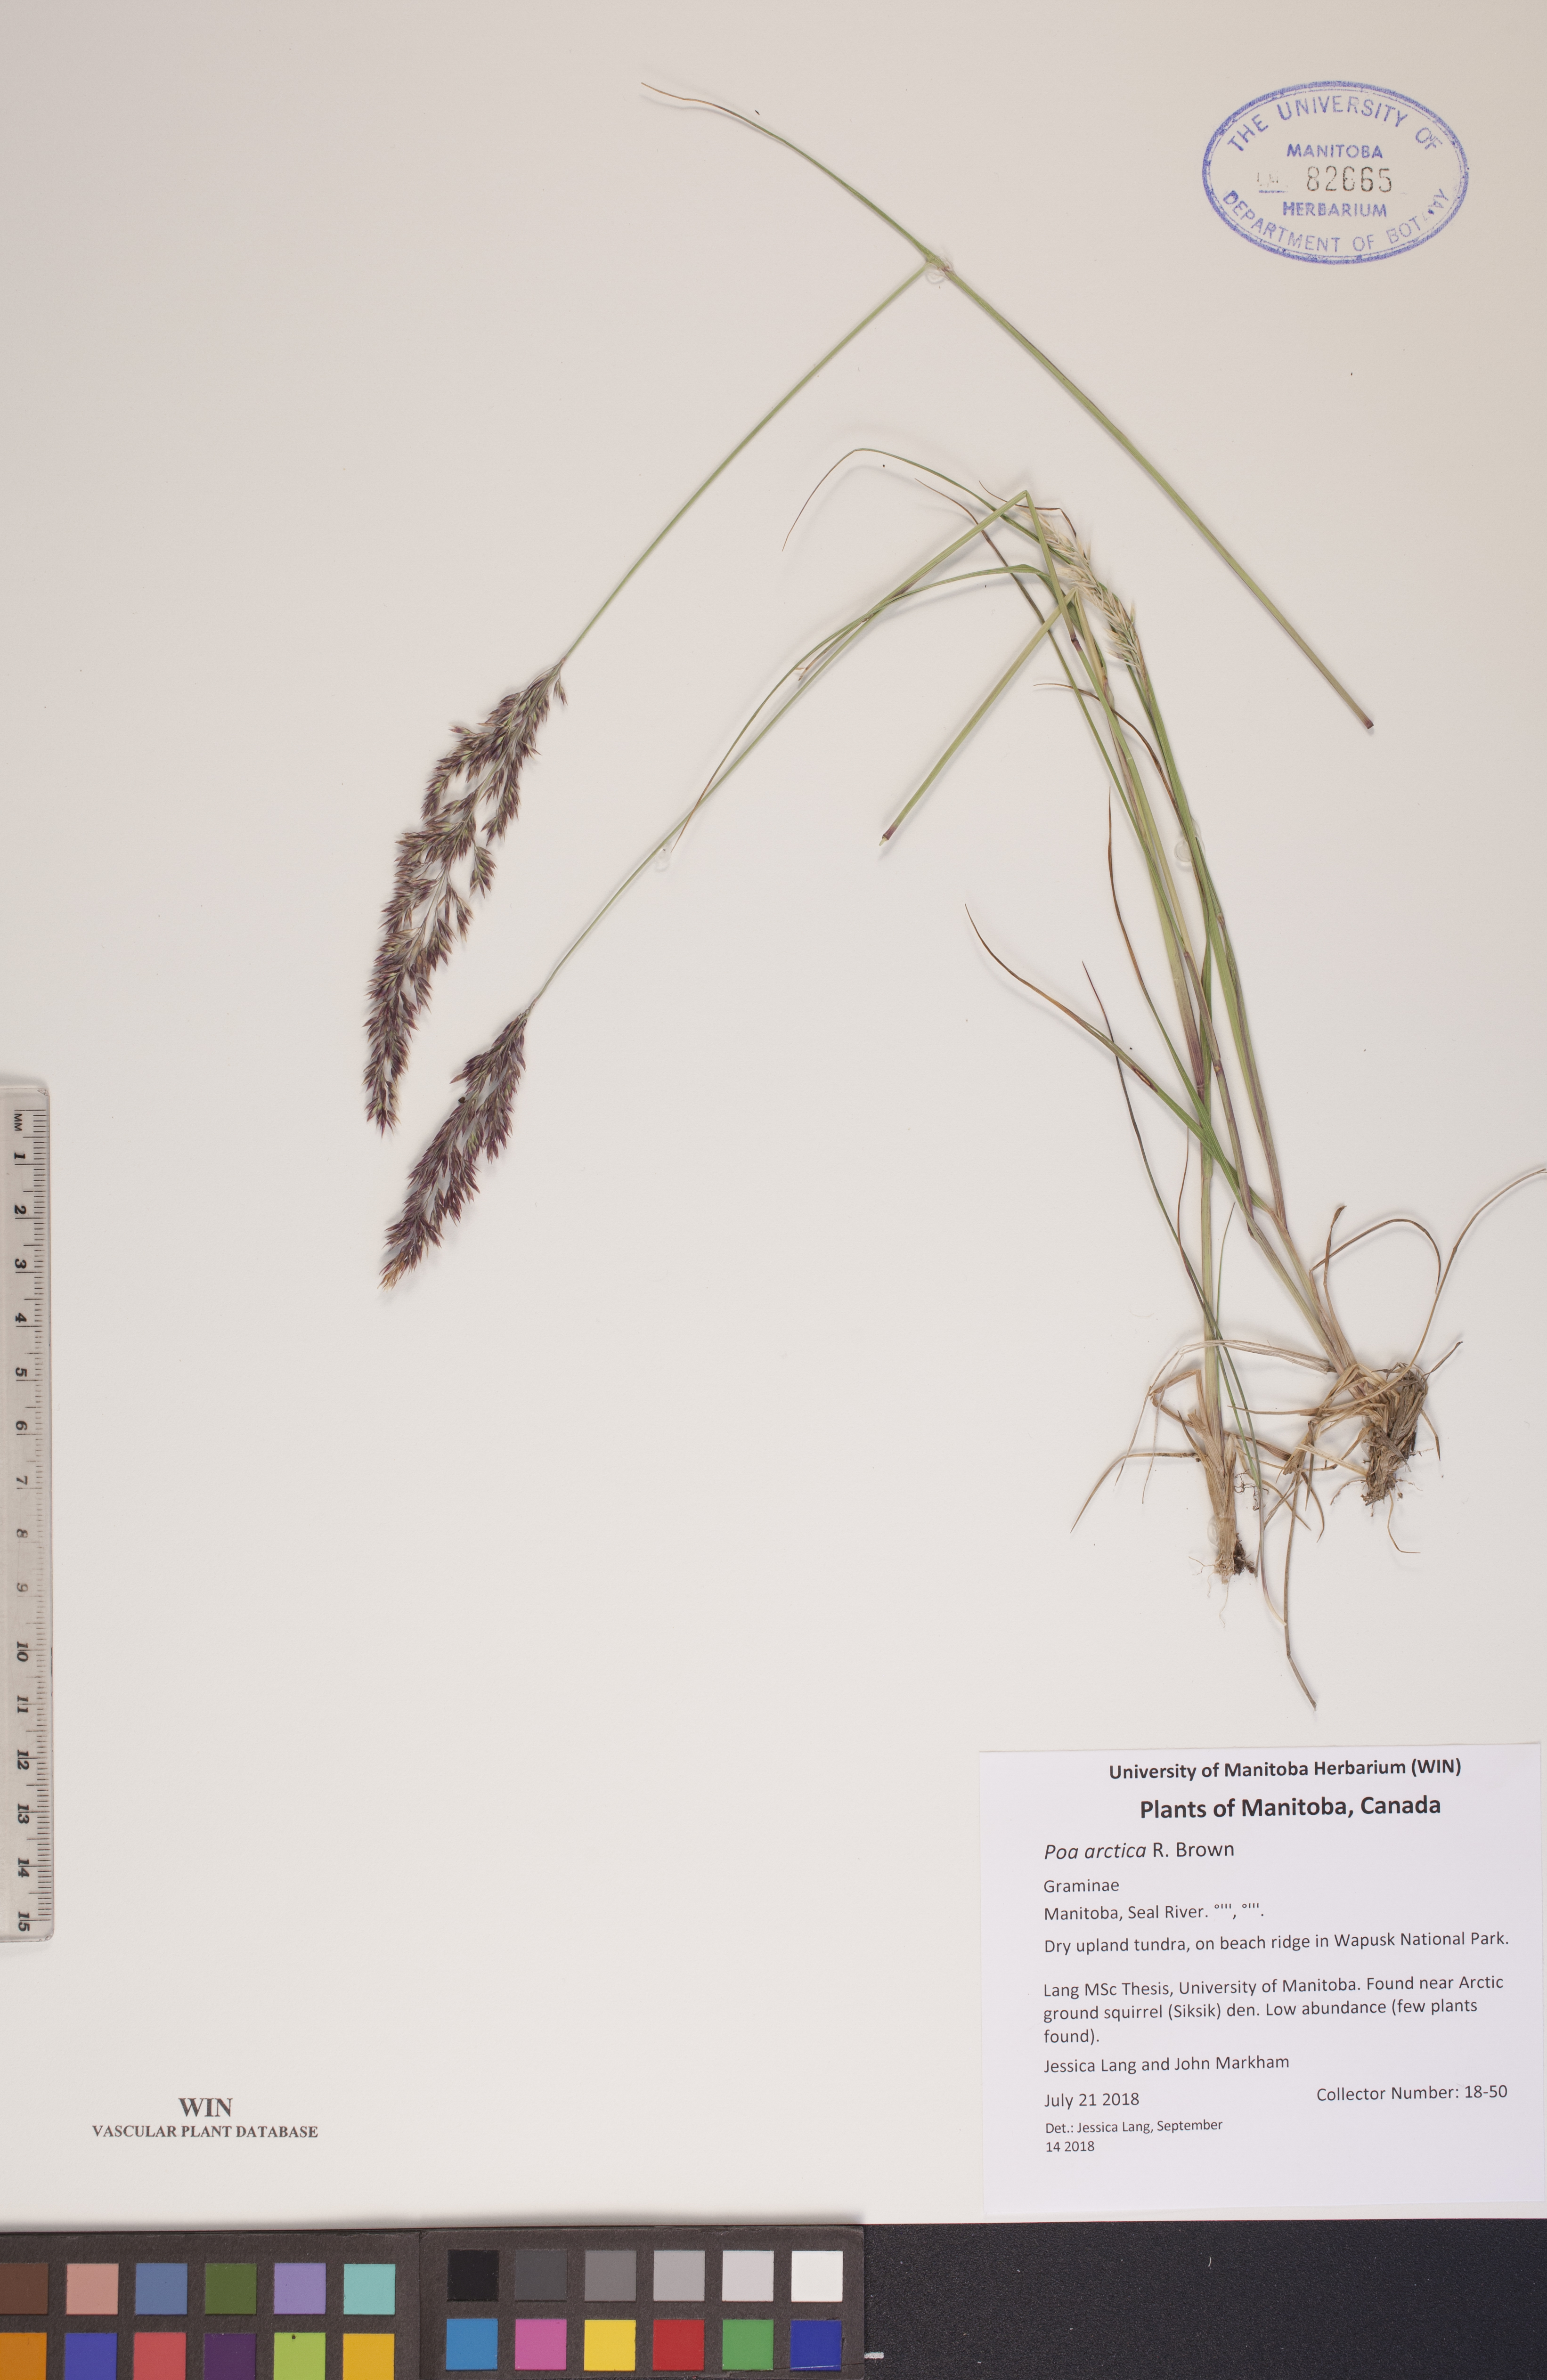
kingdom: Plantae
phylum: Tracheophyta
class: Liliopsida
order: Poales
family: Poaceae
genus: Poa
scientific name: Poa arctica
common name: Arctic bluegrass
